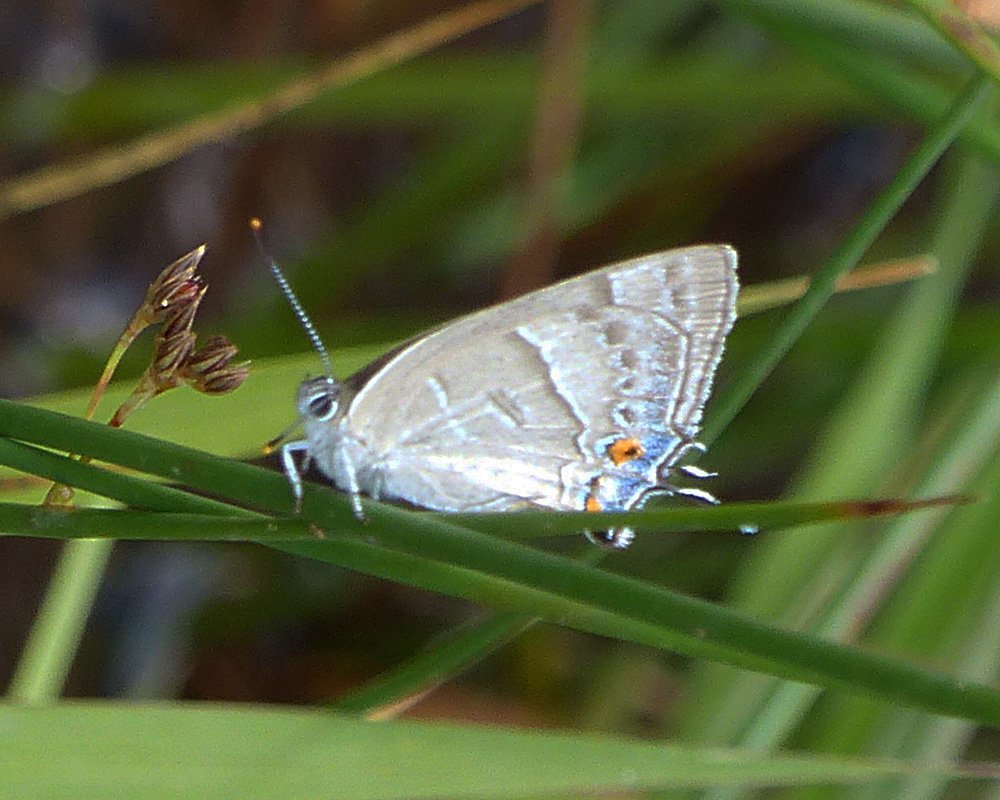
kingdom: Animalia
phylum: Arthropoda
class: Insecta
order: Lepidoptera
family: Lycaenidae
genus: Hypaurotis
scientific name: Hypaurotis crysalus
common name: Colorado Hairstreak
